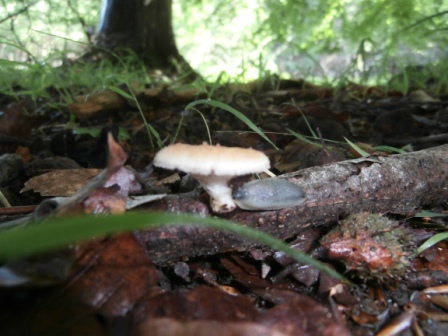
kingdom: Fungi
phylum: Basidiomycota
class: Agaricomycetes
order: Polyporales
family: Polyporaceae
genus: Polyporus
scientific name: Polyporus tuberaster
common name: knoldet stilkporesvamp
